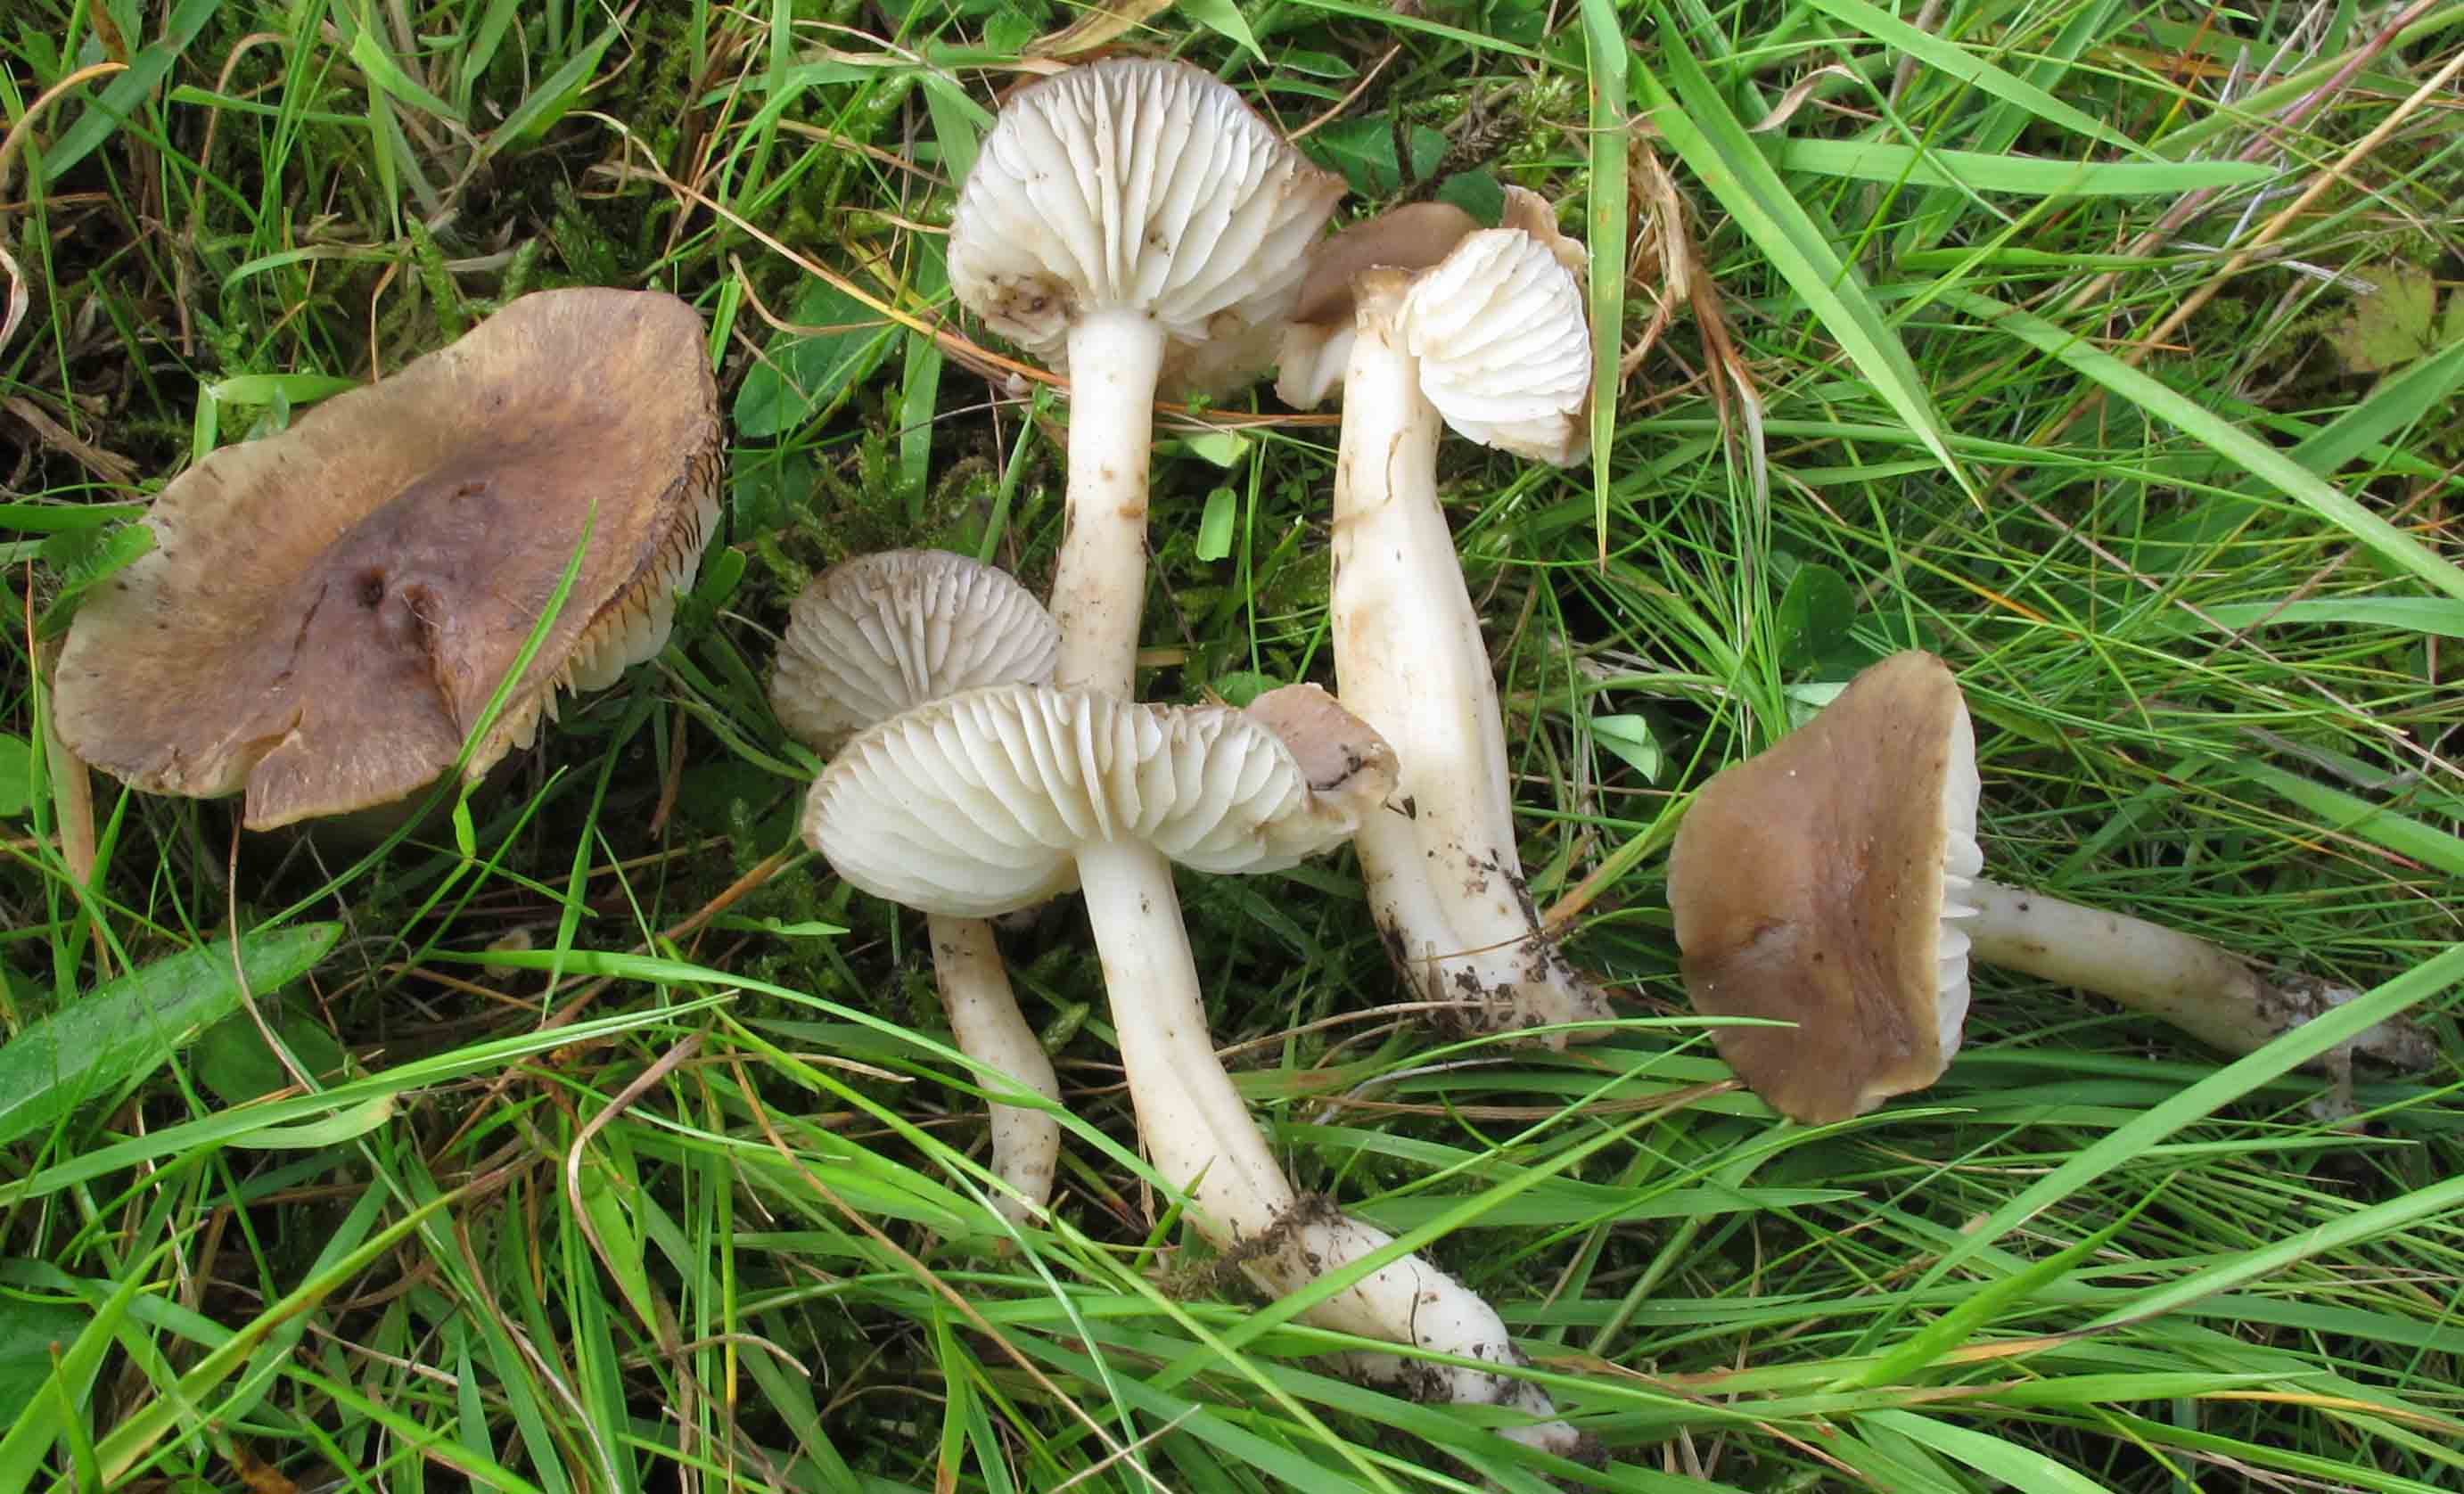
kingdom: Fungi
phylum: Basidiomycota
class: Agaricomycetes
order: Agaricales
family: Hygrophoraceae
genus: Hygrocybe
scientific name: Hygrocybe ingrata
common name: Jensens vokshat
